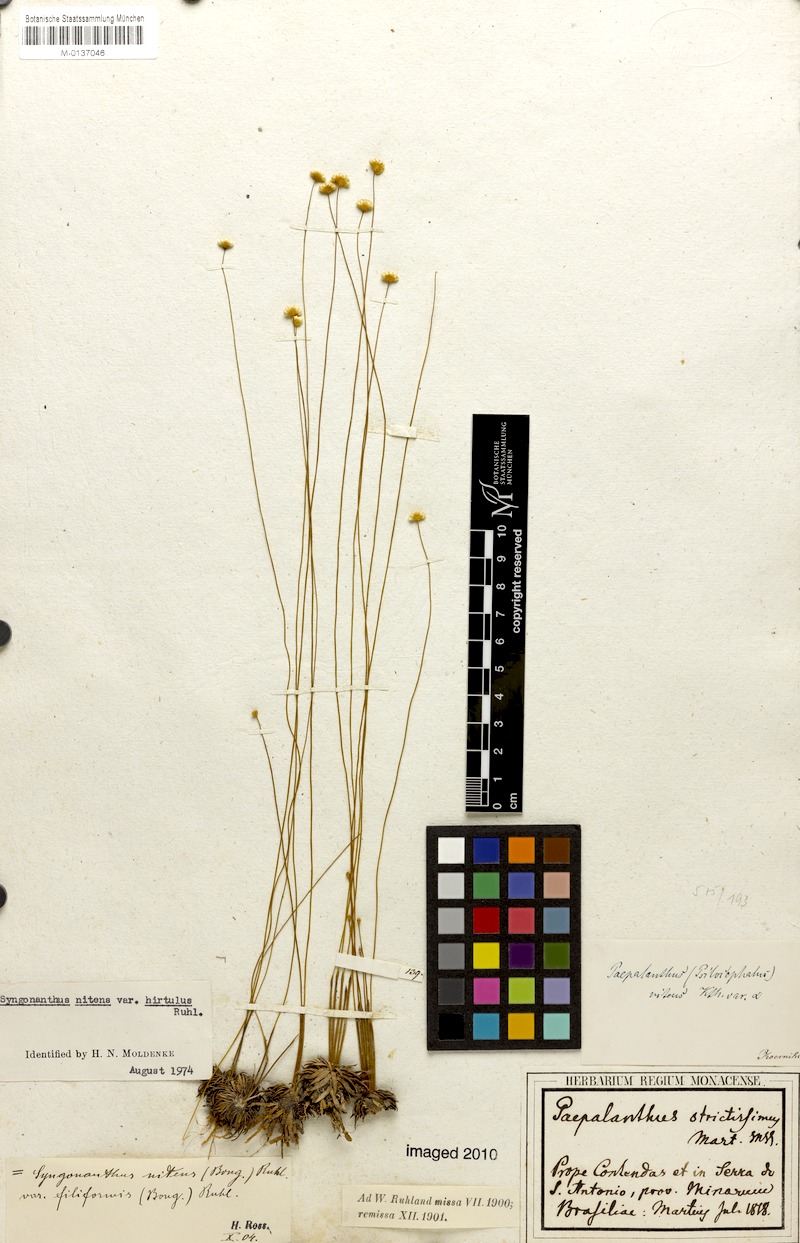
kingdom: Plantae
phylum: Tracheophyta
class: Liliopsida
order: Poales
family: Eriocaulaceae
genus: Syngonanthus
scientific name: Syngonanthus nitens
